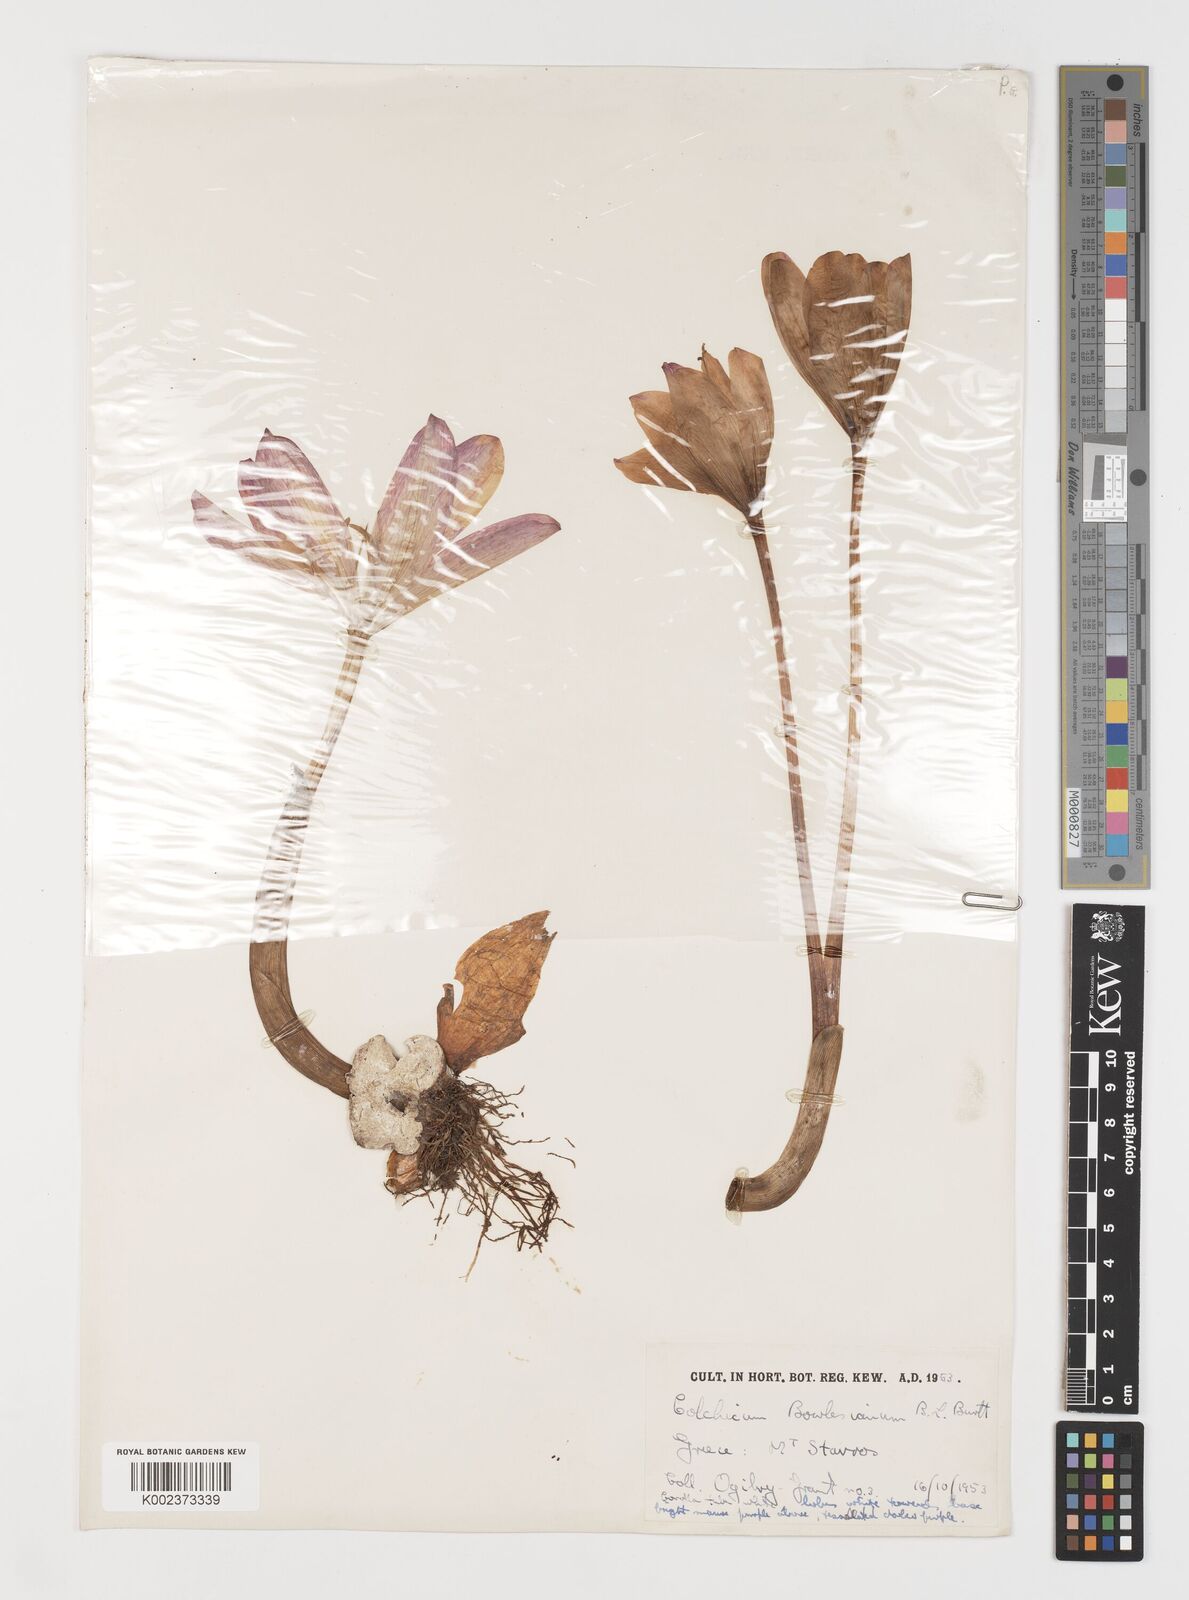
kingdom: Plantae
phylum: Tracheophyta
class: Liliopsida
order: Liliales
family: Colchicaceae
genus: Colchicum
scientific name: Colchicum bivonae
